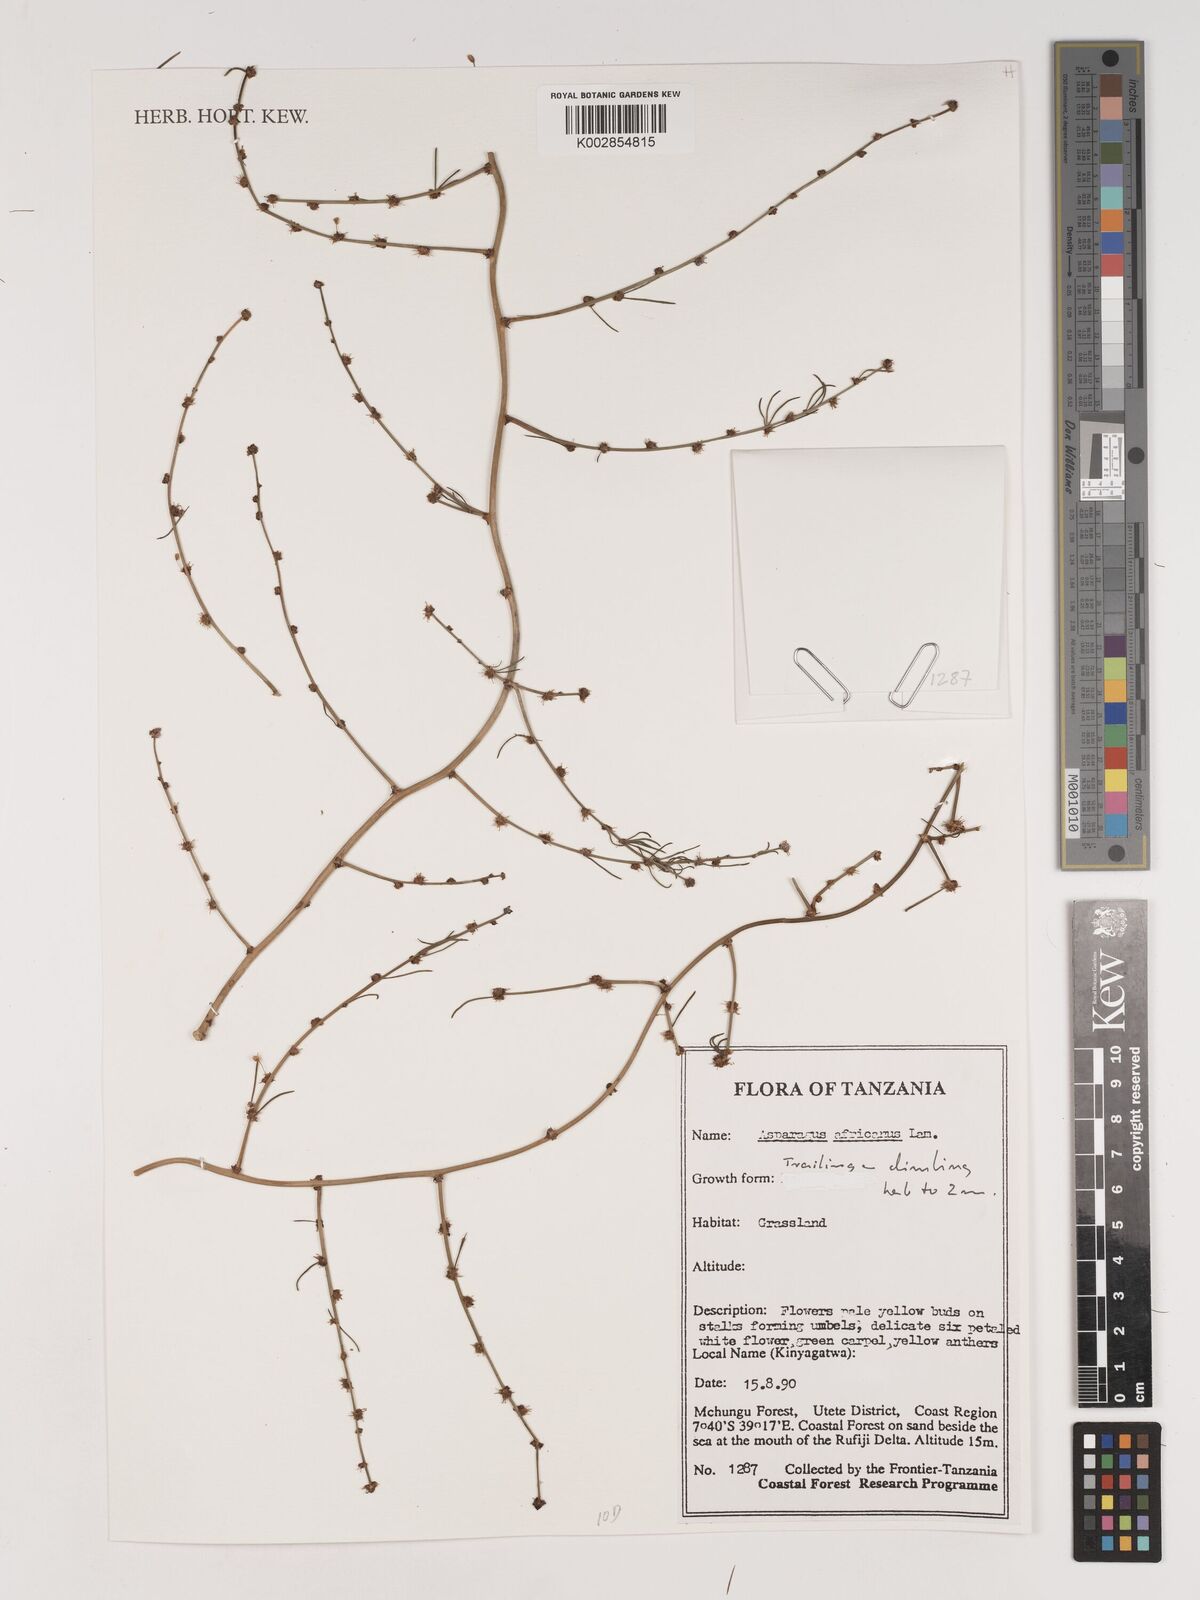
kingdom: Plantae
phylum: Tracheophyta
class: Liliopsida
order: Asparagales
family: Asparagaceae
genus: Asparagus
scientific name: Asparagus africanus
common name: Asparagus-fern
